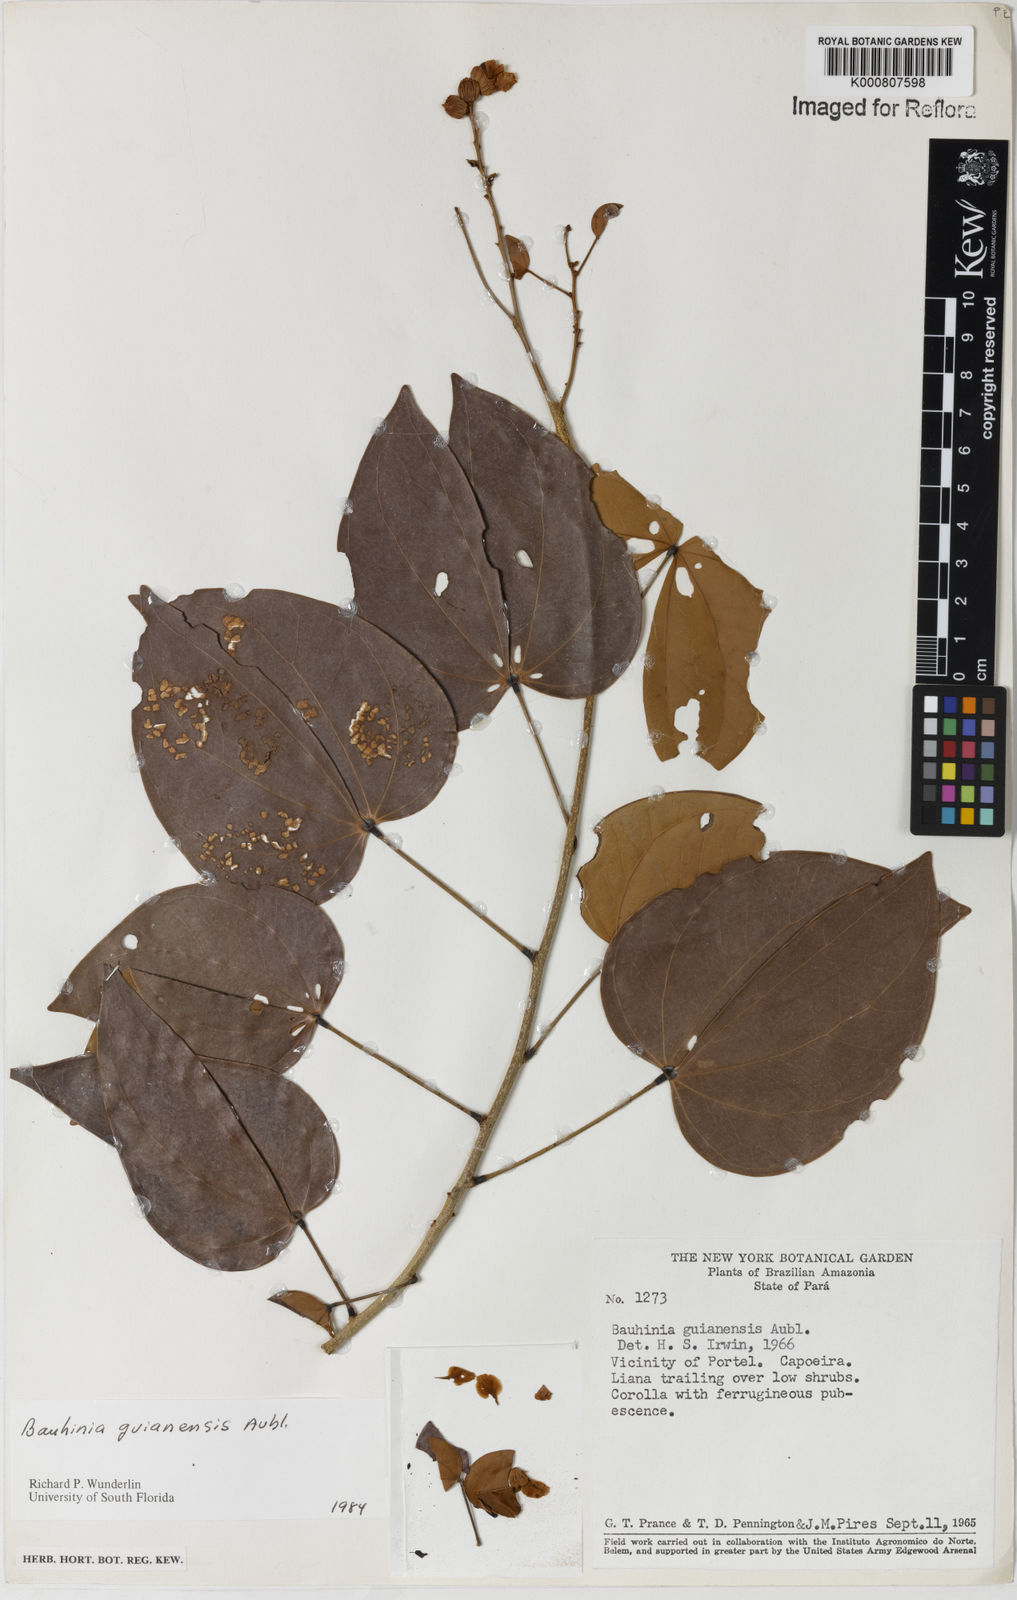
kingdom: Plantae
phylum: Tracheophyta
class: Magnoliopsida
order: Fabales
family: Fabaceae
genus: Schnella
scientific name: Schnella guianensis
